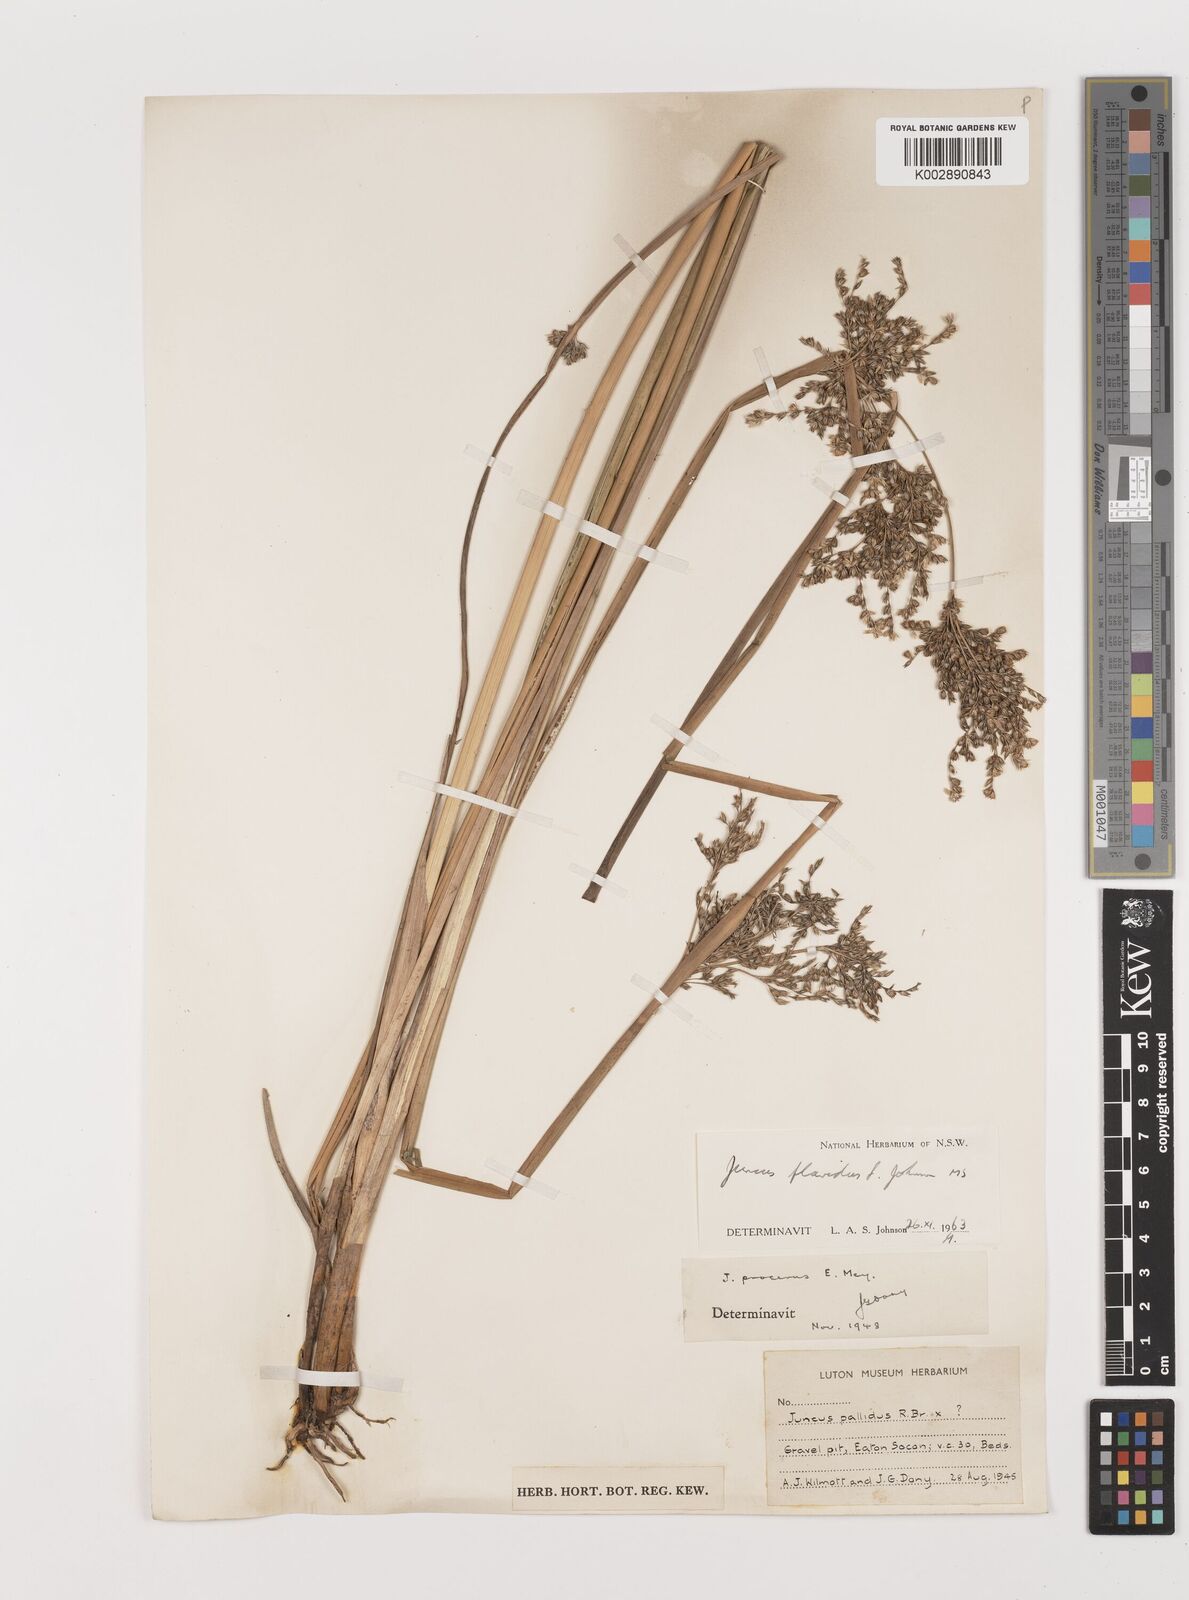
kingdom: Plantae
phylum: Tracheophyta
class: Liliopsida
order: Poales
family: Juncaceae
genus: Juncus
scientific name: Juncus flavidus
